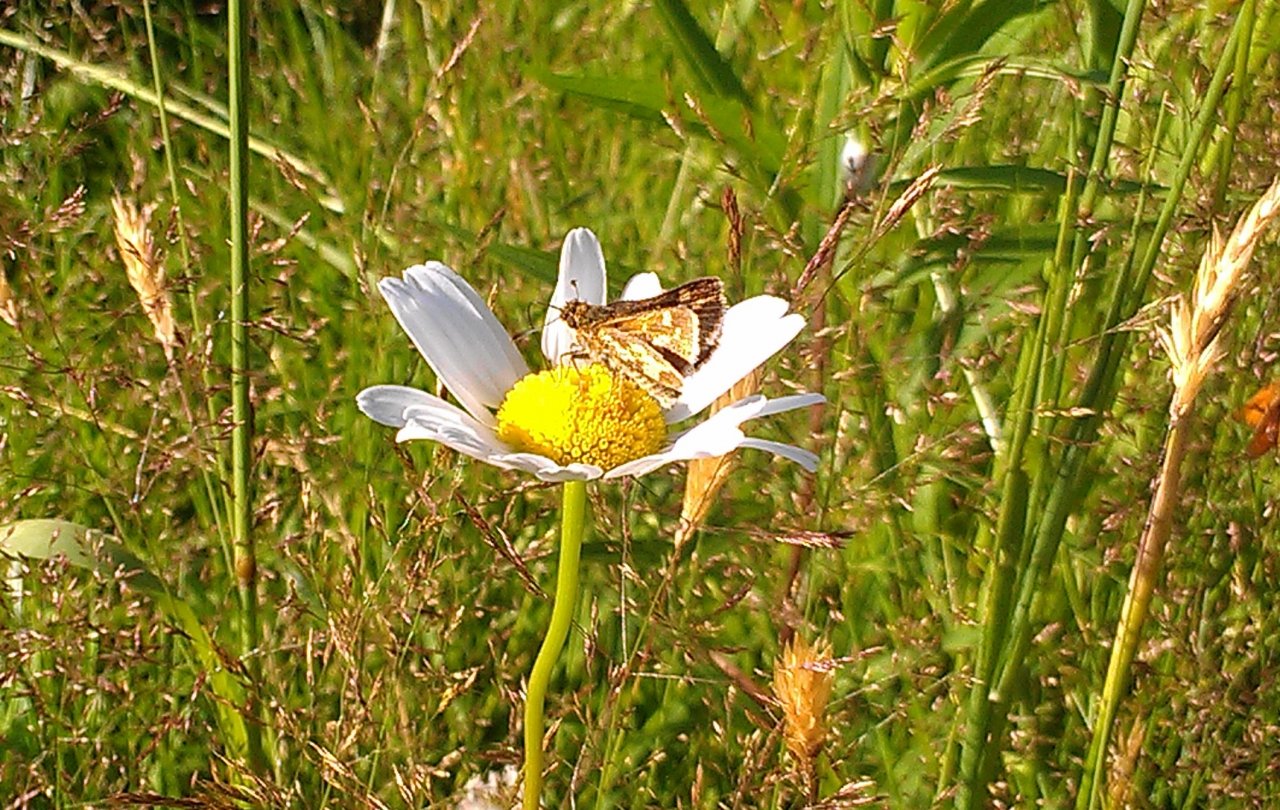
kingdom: Animalia
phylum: Arthropoda
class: Insecta
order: Lepidoptera
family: Hesperiidae
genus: Polites
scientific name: Polites coras
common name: Peck's Skipper
